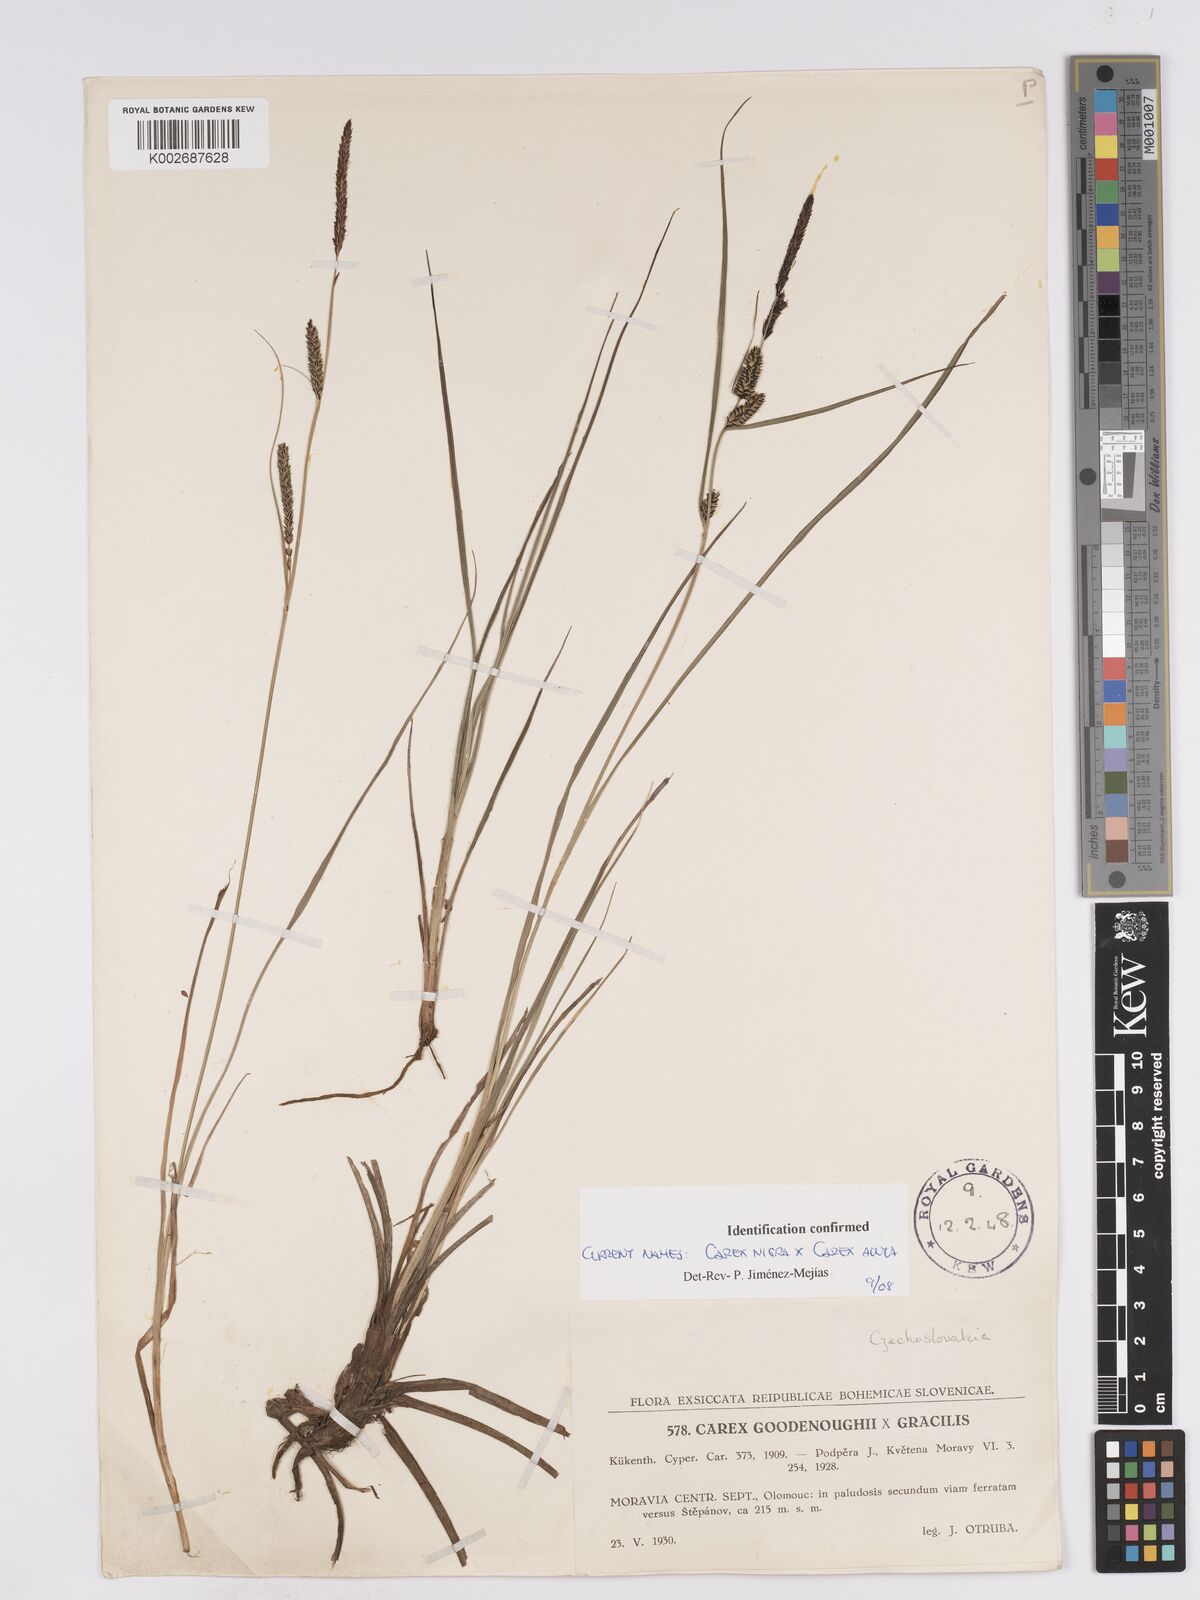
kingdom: Plantae
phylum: Tracheophyta
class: Liliopsida
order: Poales
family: Cyperaceae
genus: Carex
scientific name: Carex nigra
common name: Common sedge
